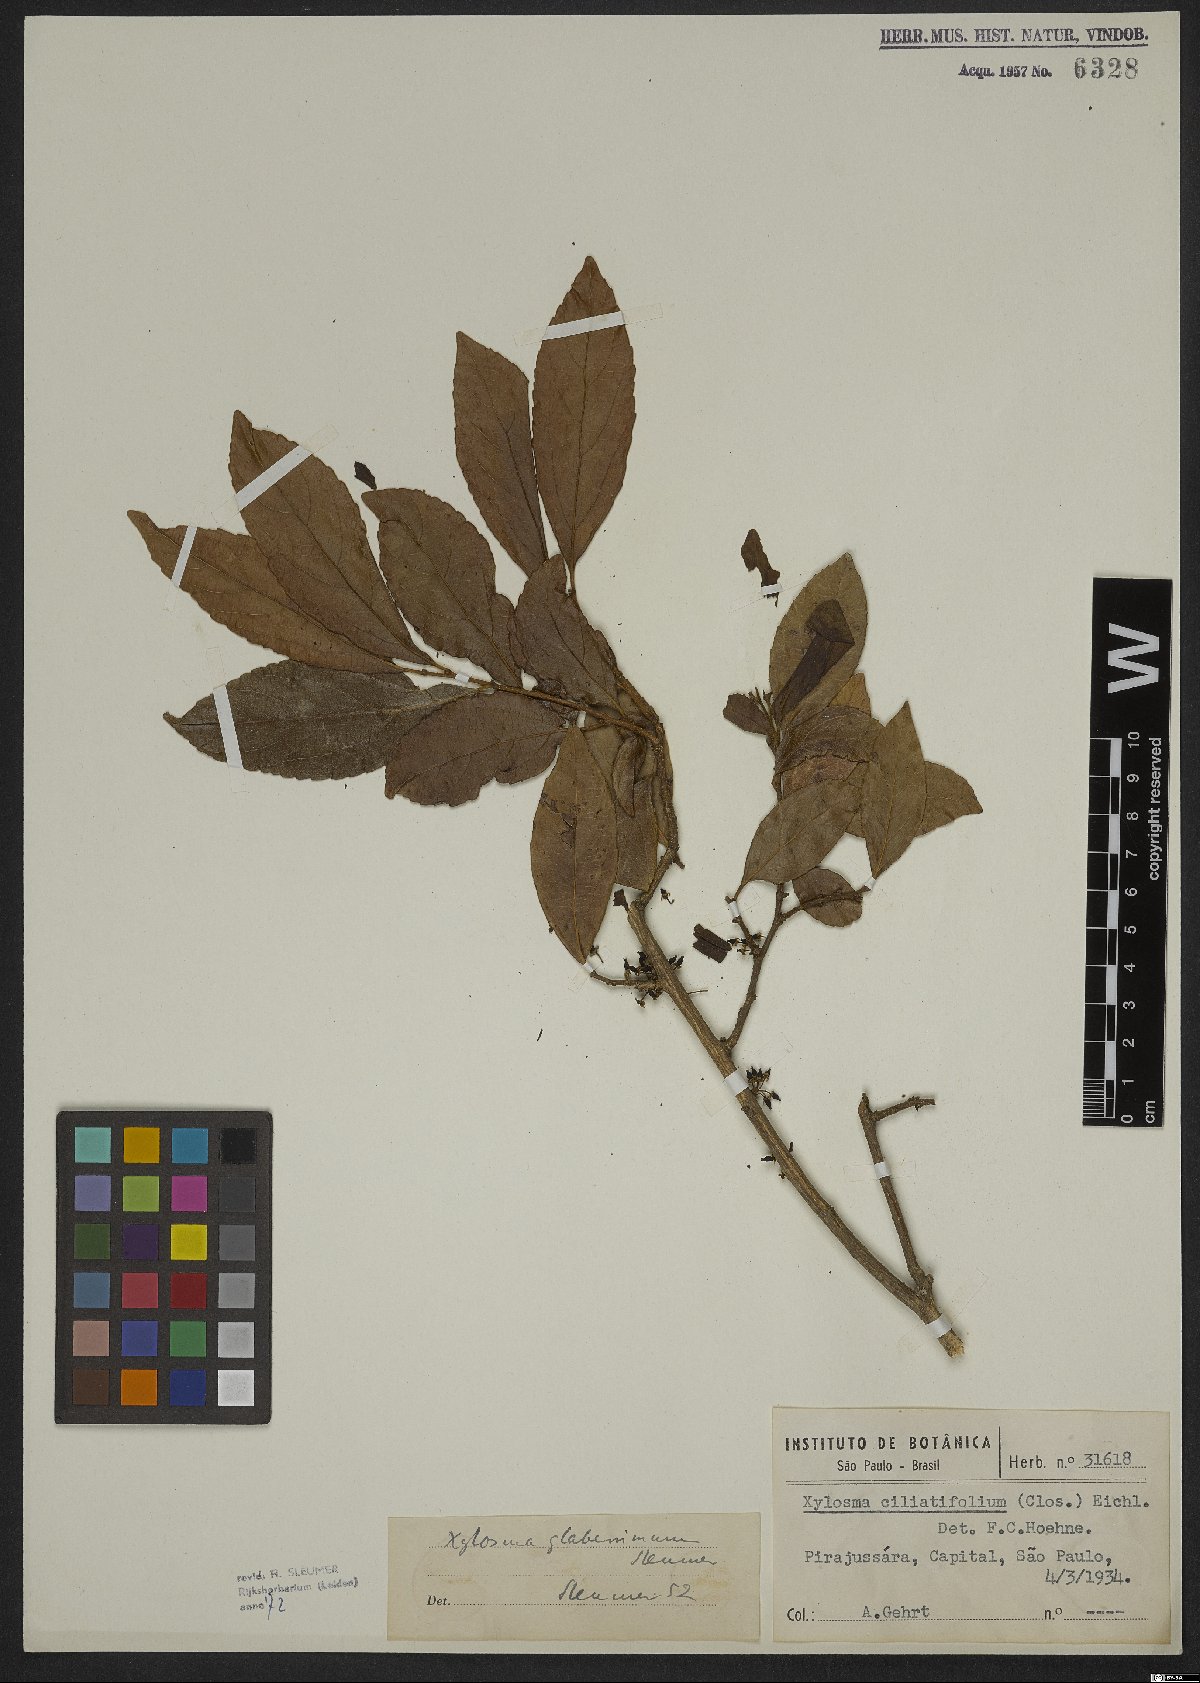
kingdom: Plantae
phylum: Tracheophyta
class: Magnoliopsida
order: Ericales
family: Ericaceae
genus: Agarista
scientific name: Agarista coriifolia
